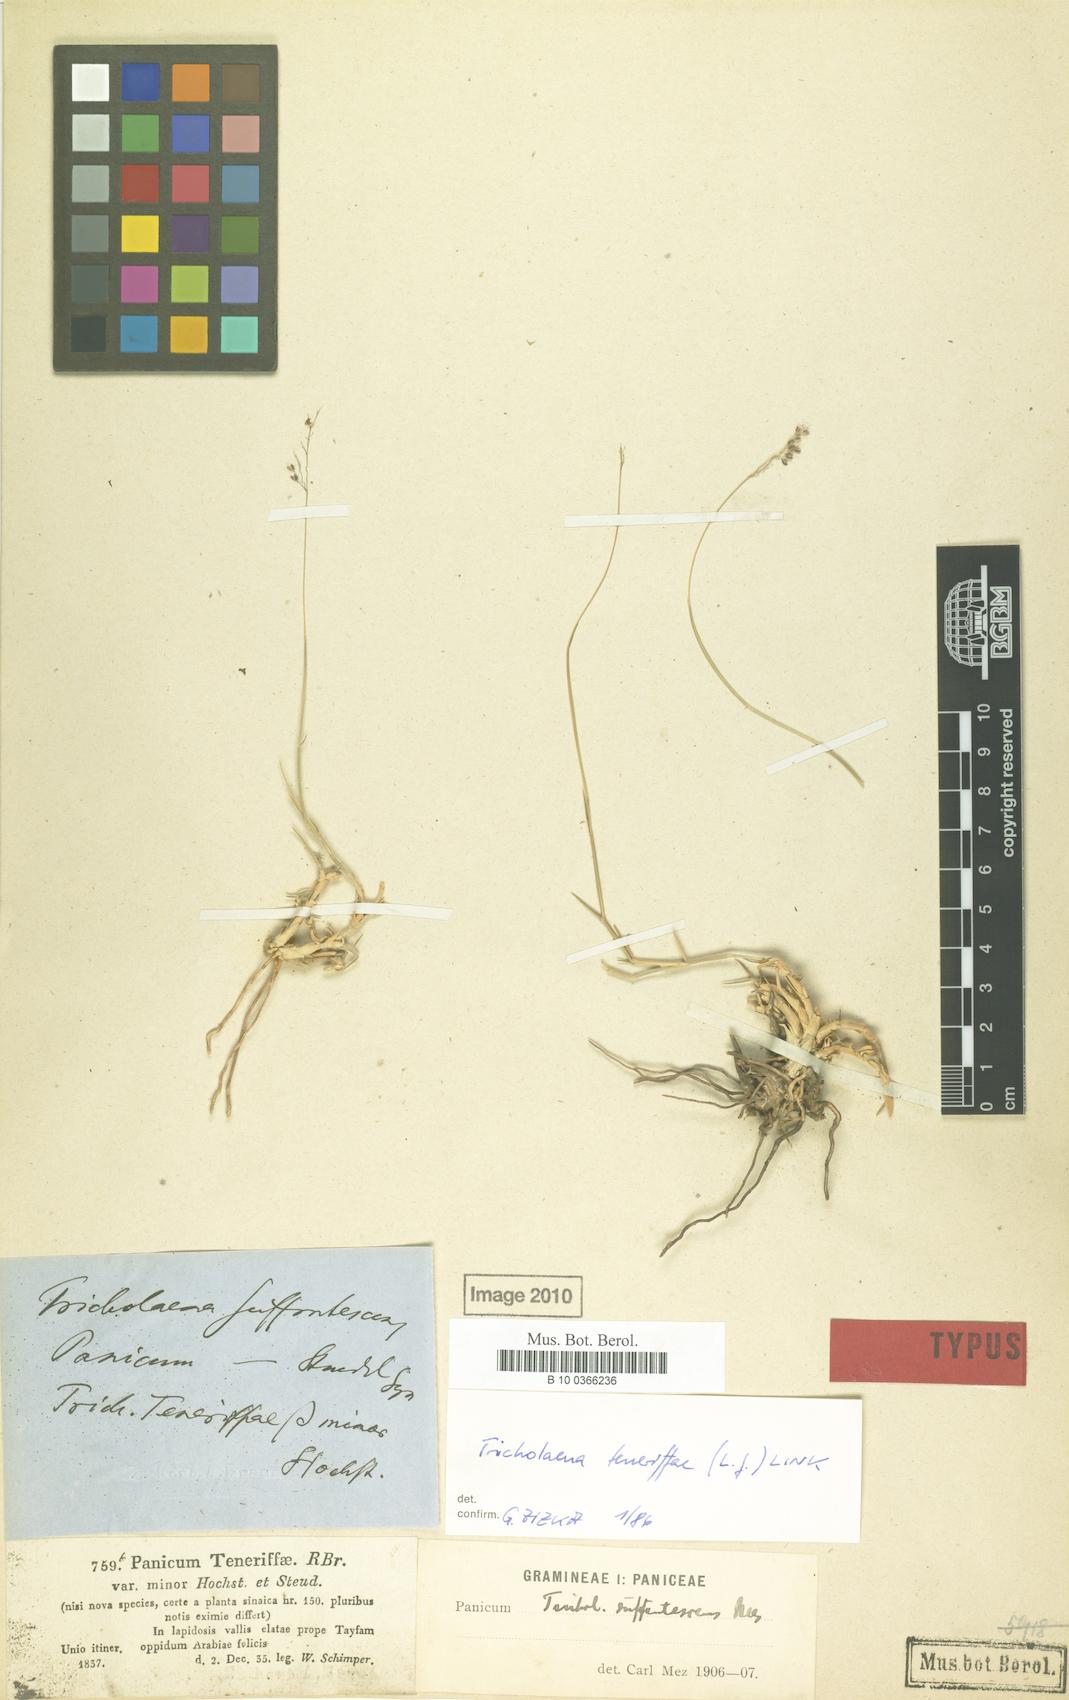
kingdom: Plantae
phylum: Tracheophyta
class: Liliopsida
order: Poales
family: Poaceae
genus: Tricholaena
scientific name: Tricholaena teneriffae
